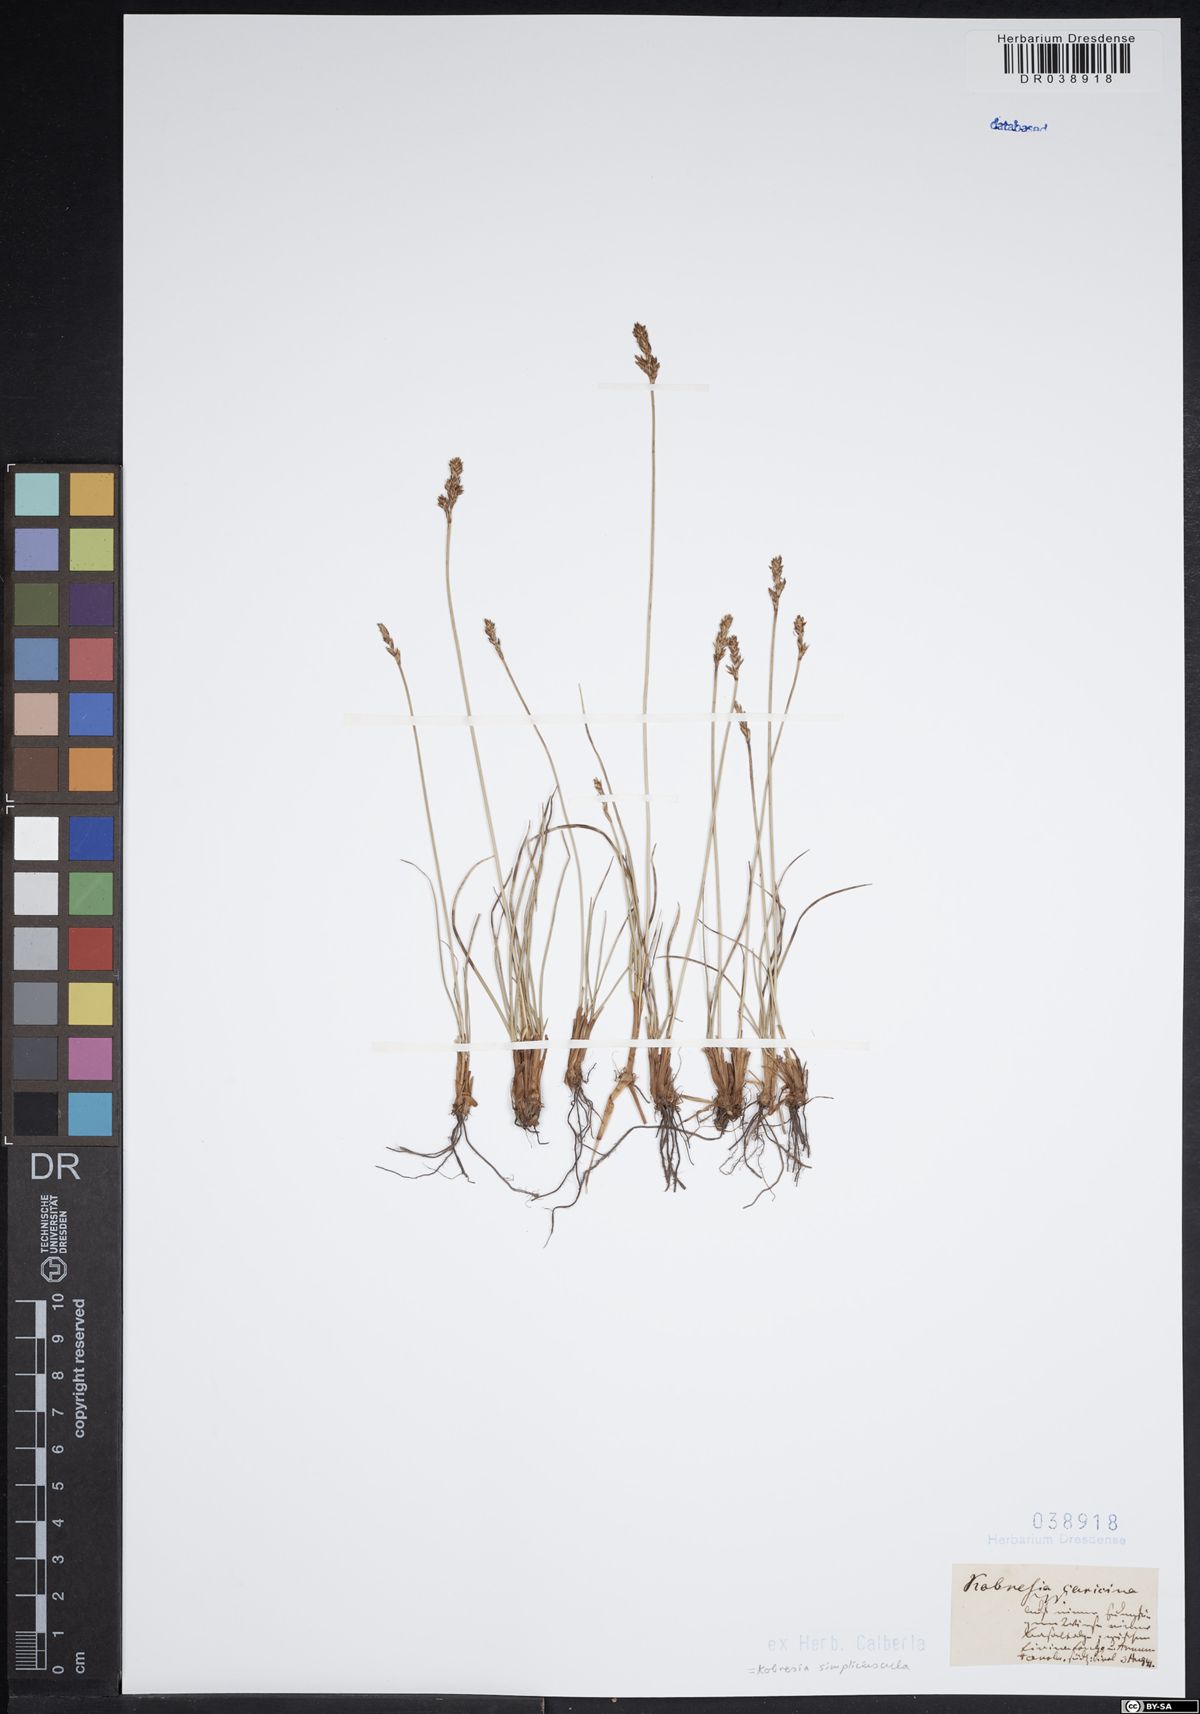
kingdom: Plantae
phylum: Tracheophyta
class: Liliopsida
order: Poales
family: Cyperaceae
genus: Carex
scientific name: Carex simpliciuscula
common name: Simple bog sedge
